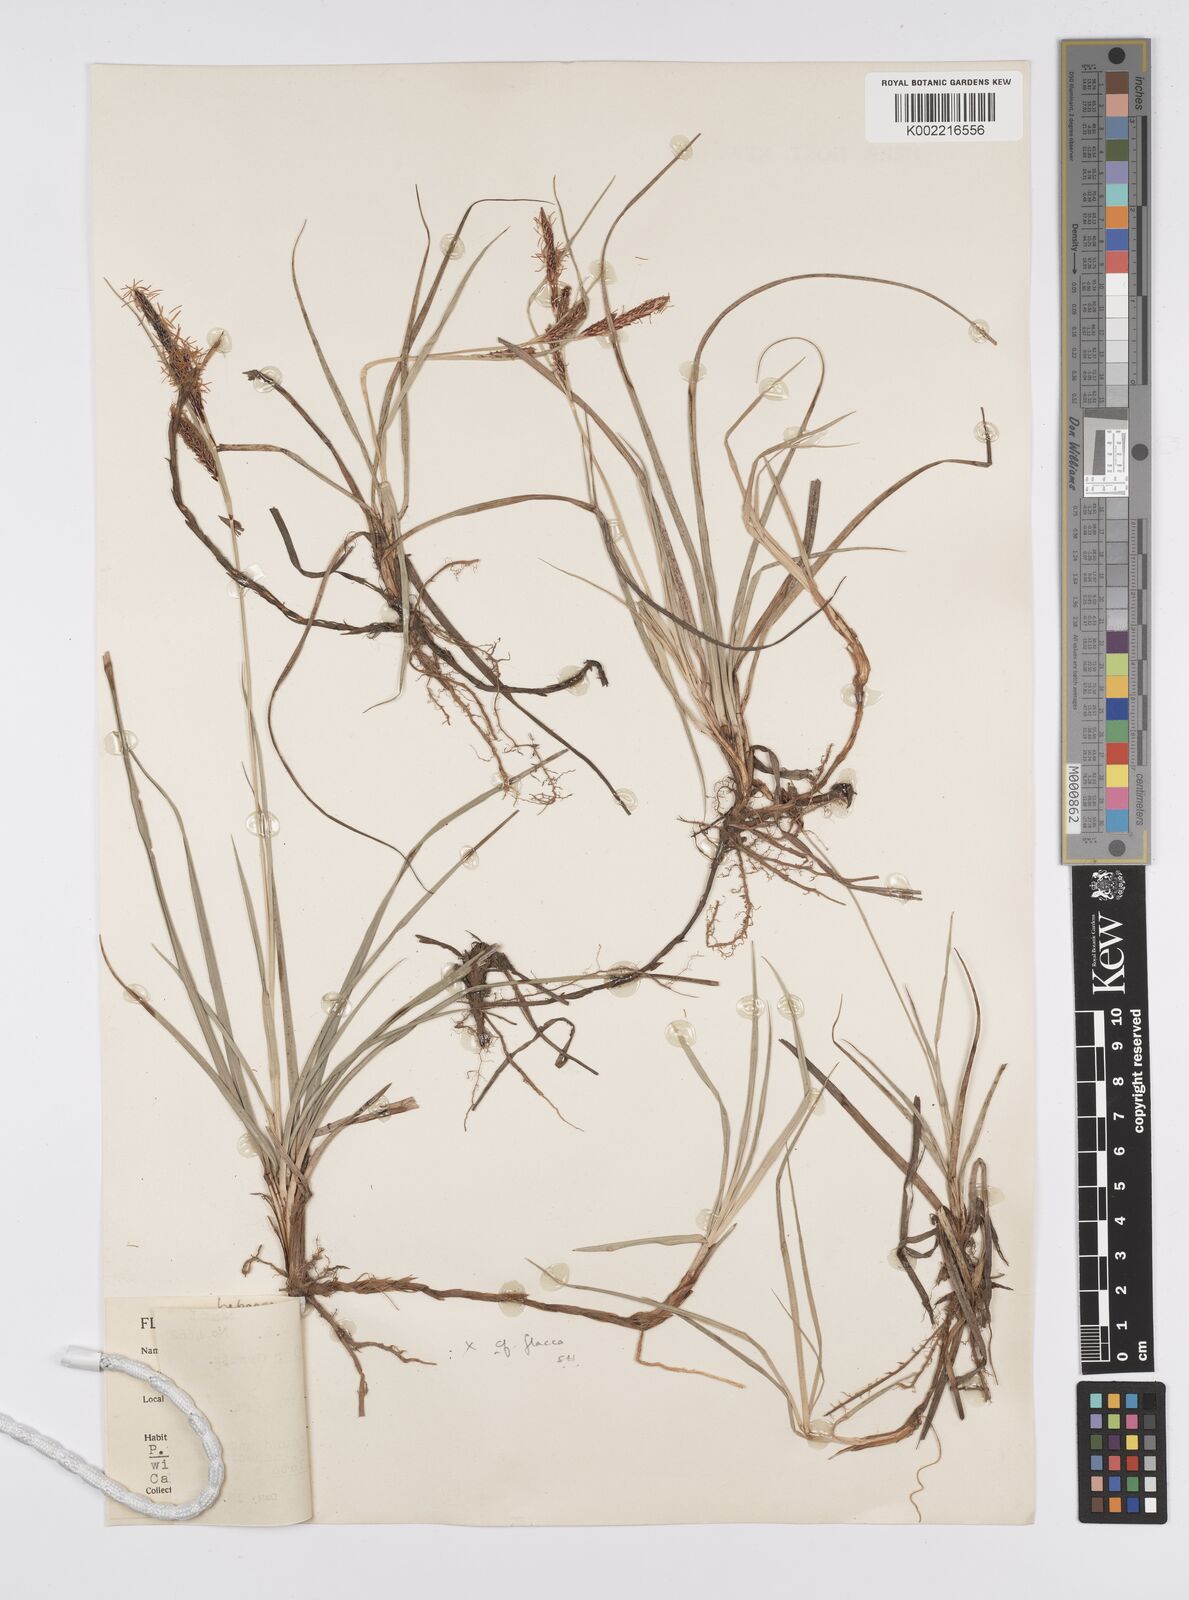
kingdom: Plantae
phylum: Tracheophyta
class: Liliopsida
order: Poales
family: Cyperaceae
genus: Carex
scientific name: Carex flacca
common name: Glaucous sedge
